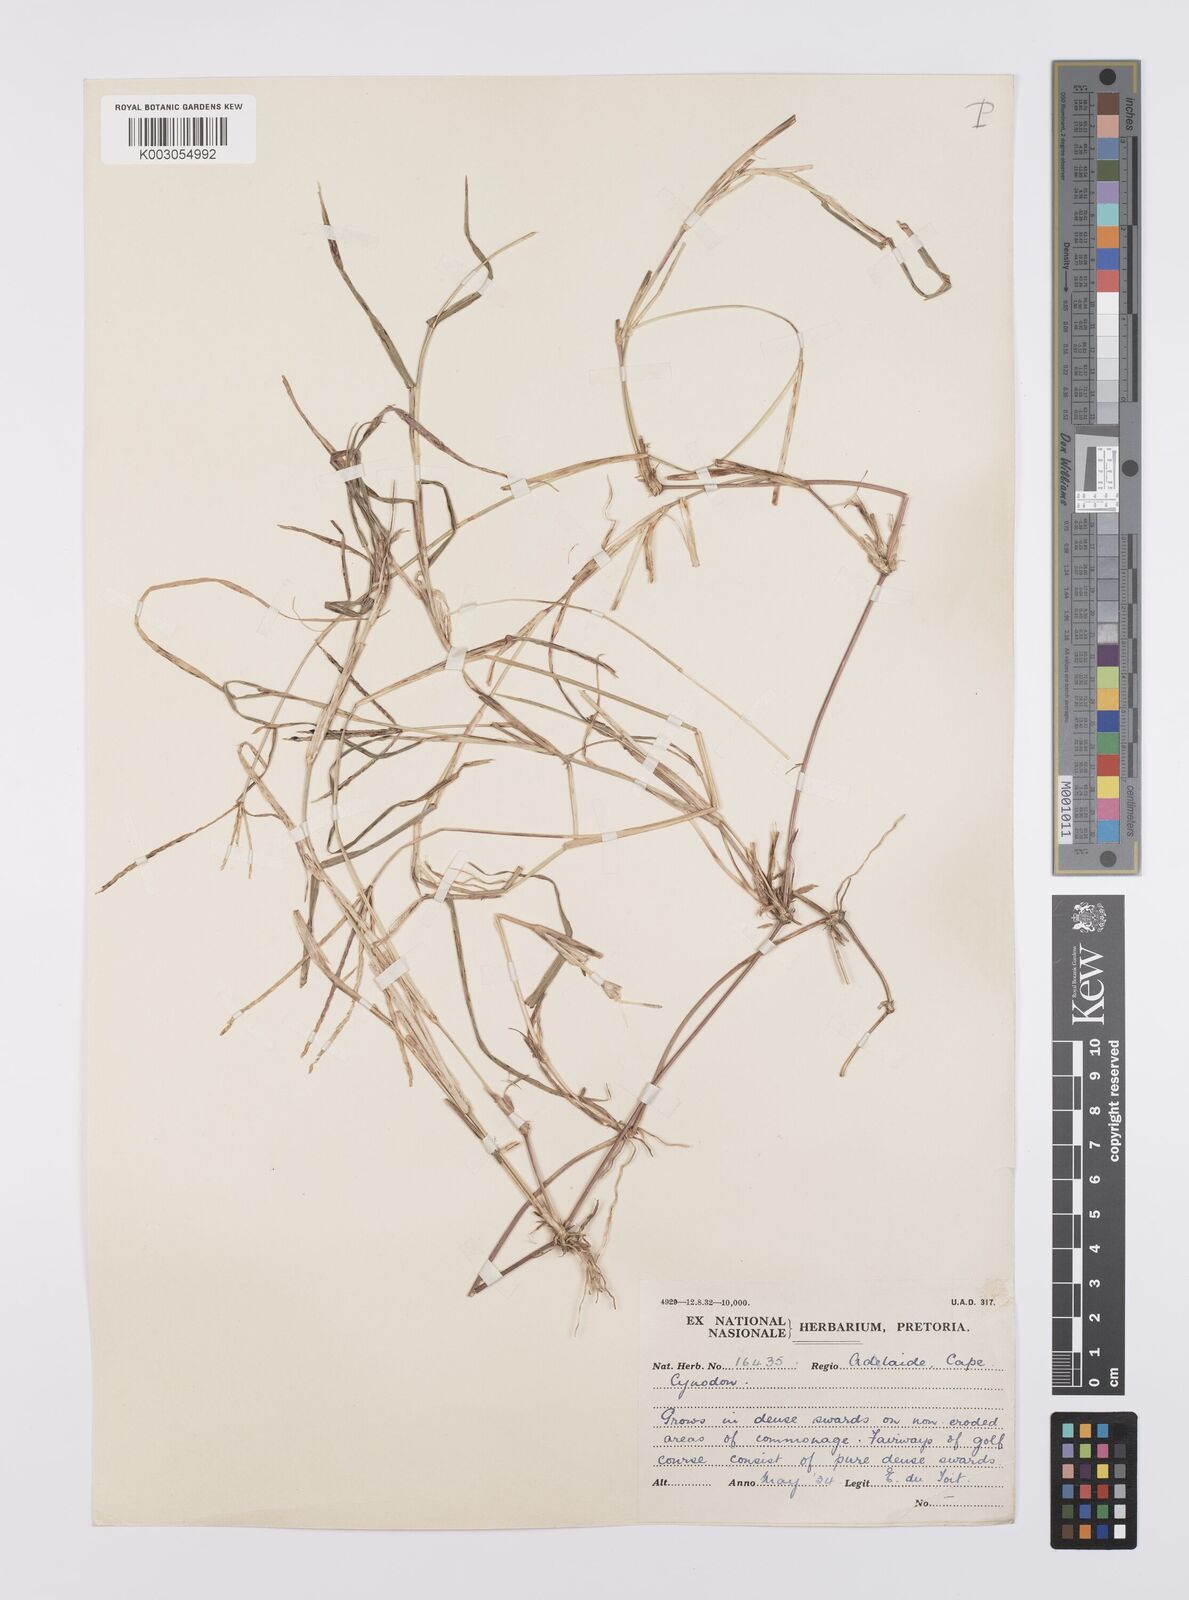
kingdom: Plantae
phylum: Tracheophyta
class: Liliopsida
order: Poales
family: Poaceae
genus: Cynodon
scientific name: Cynodon incompletus
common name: African bermuda-grass
